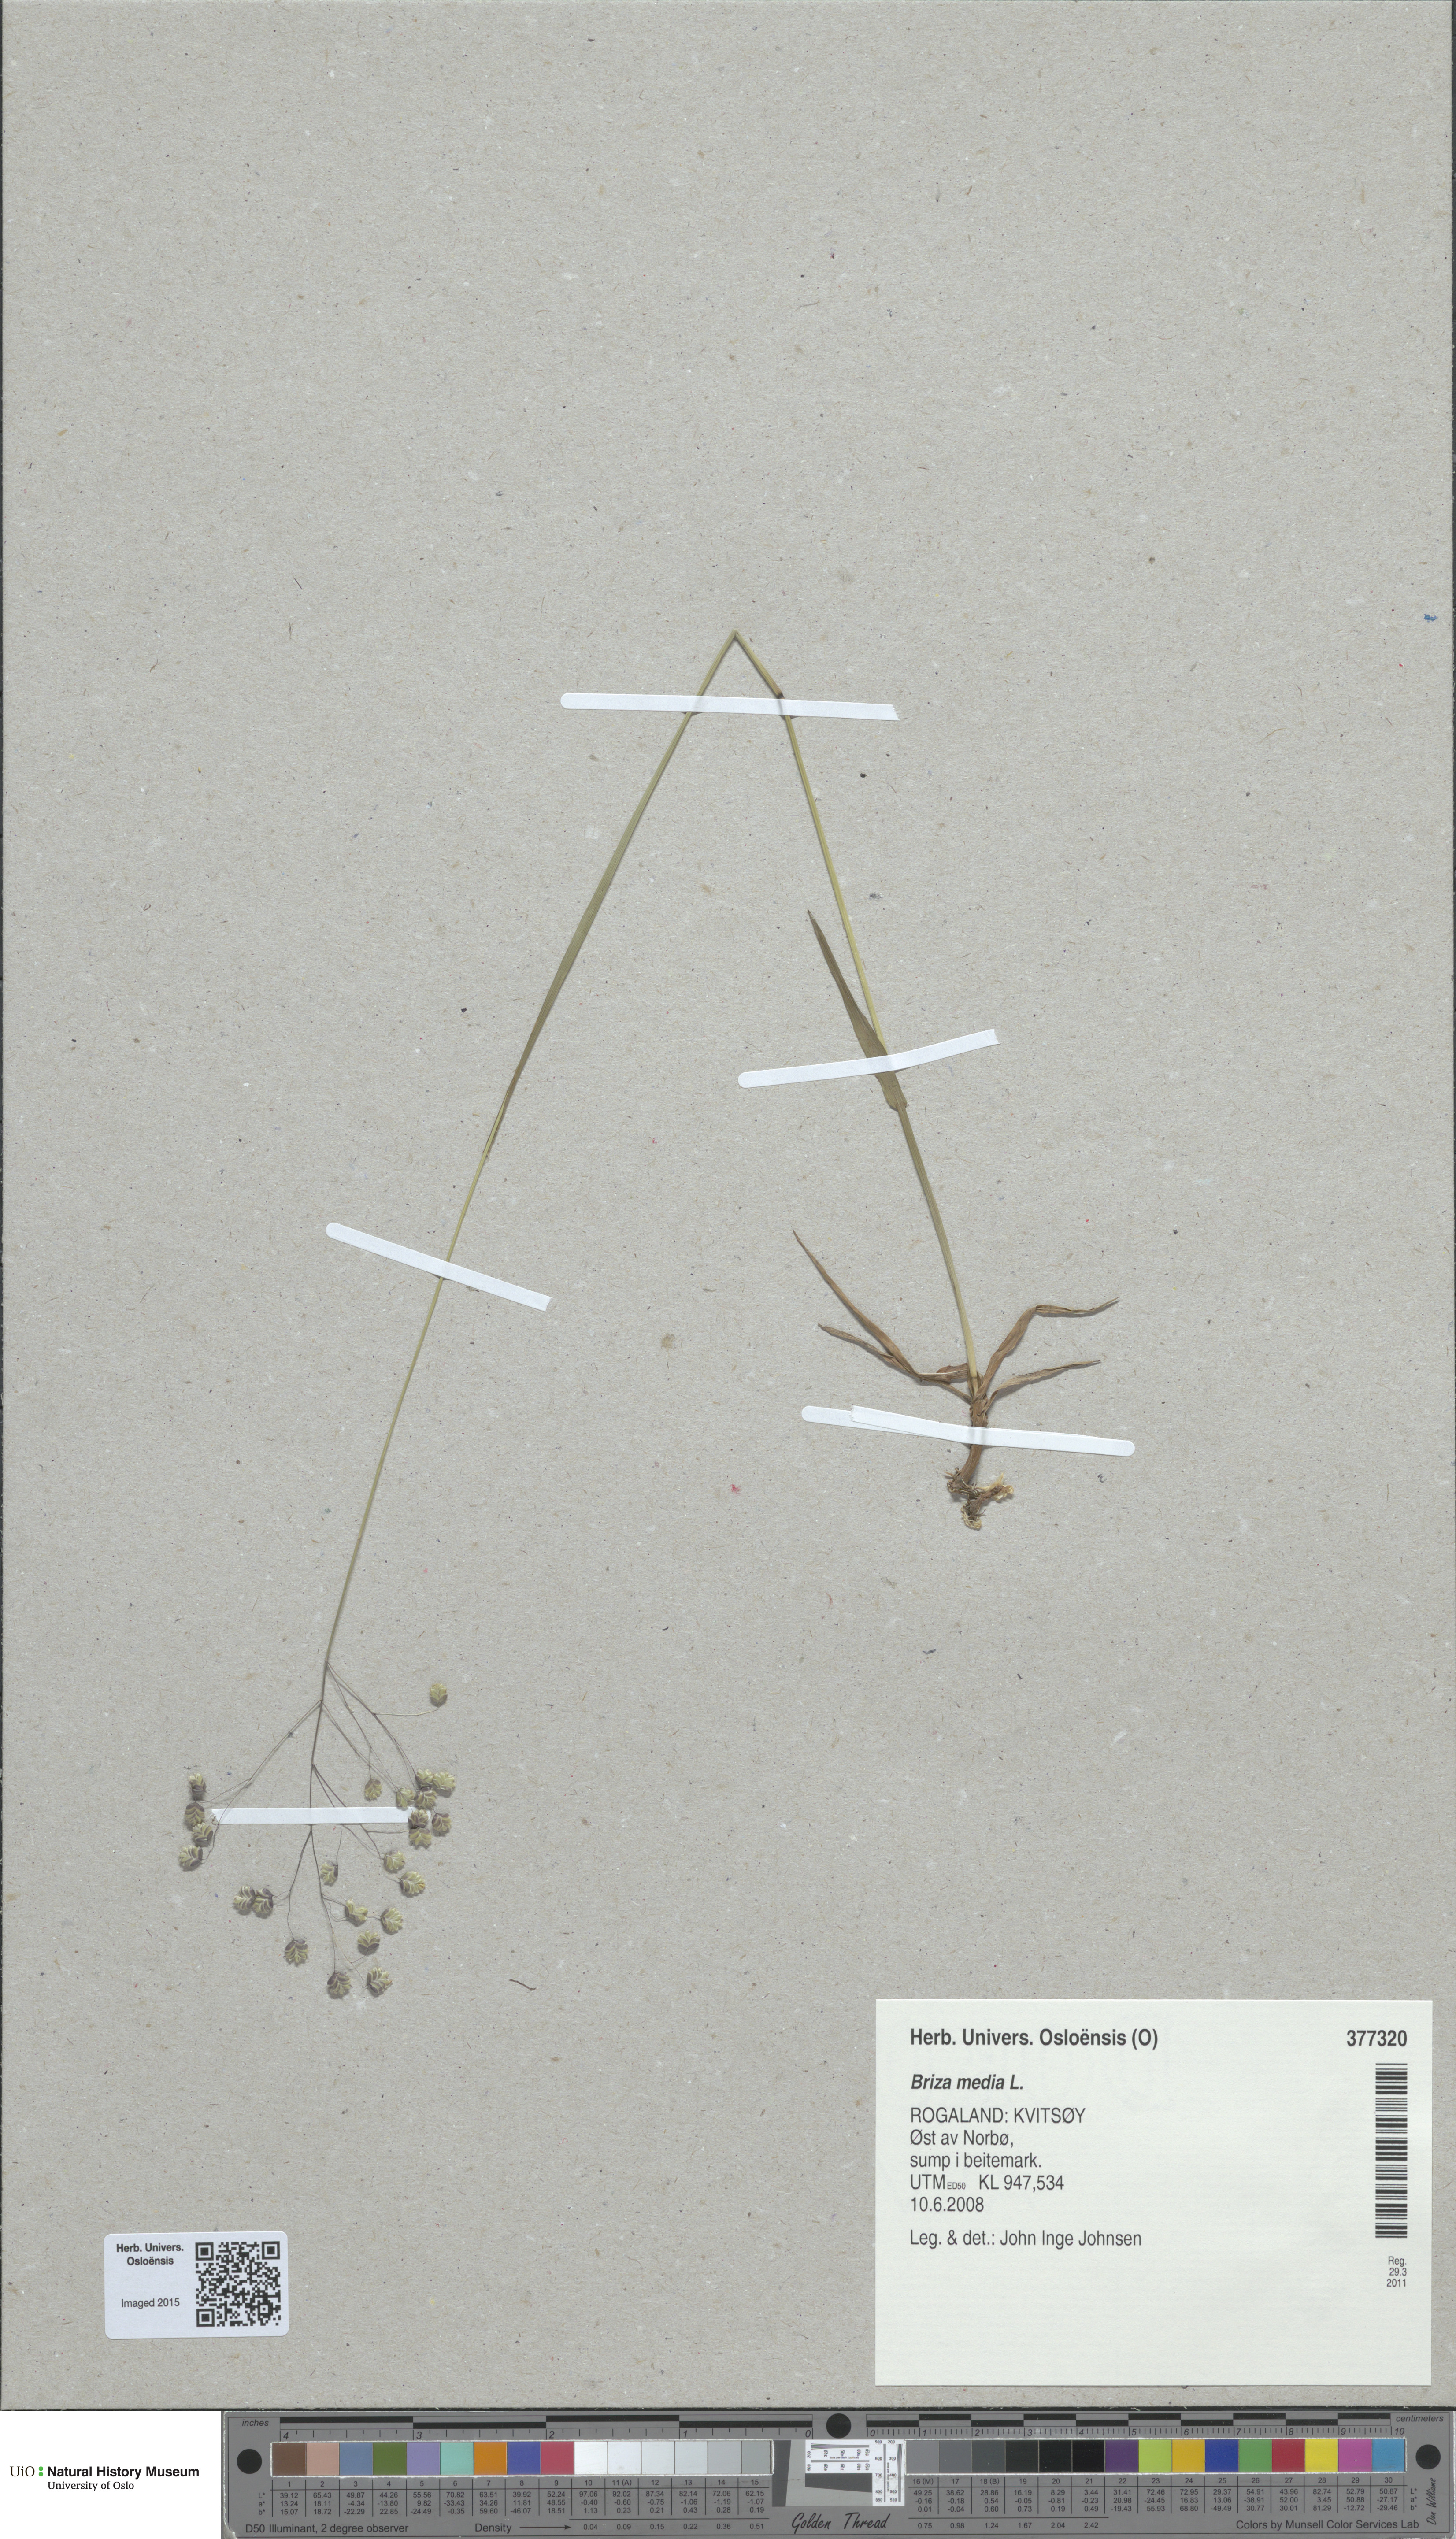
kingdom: Plantae
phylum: Tracheophyta
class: Liliopsida
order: Poales
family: Poaceae
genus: Briza
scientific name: Briza media
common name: Quaking grass
